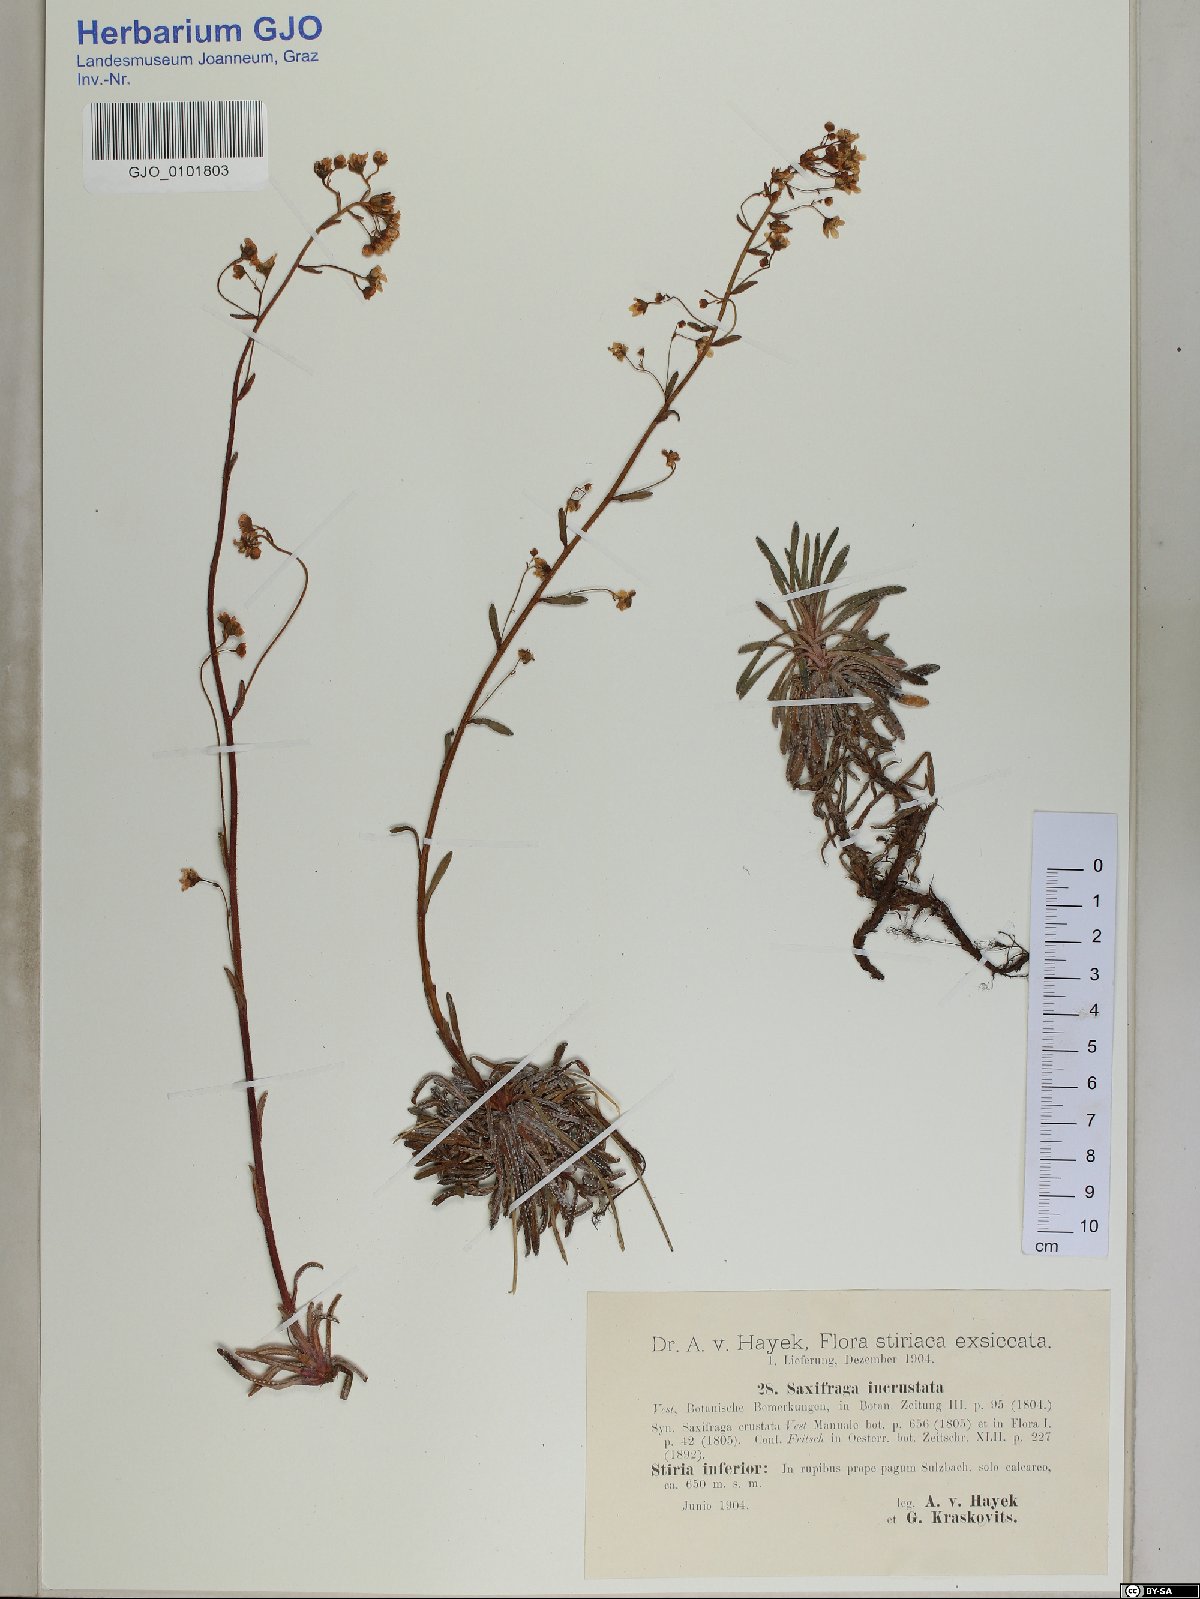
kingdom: Plantae
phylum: Tracheophyta
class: Magnoliopsida
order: Saxifragales
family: Saxifragaceae
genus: Saxifraga
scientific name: Saxifraga crustata
